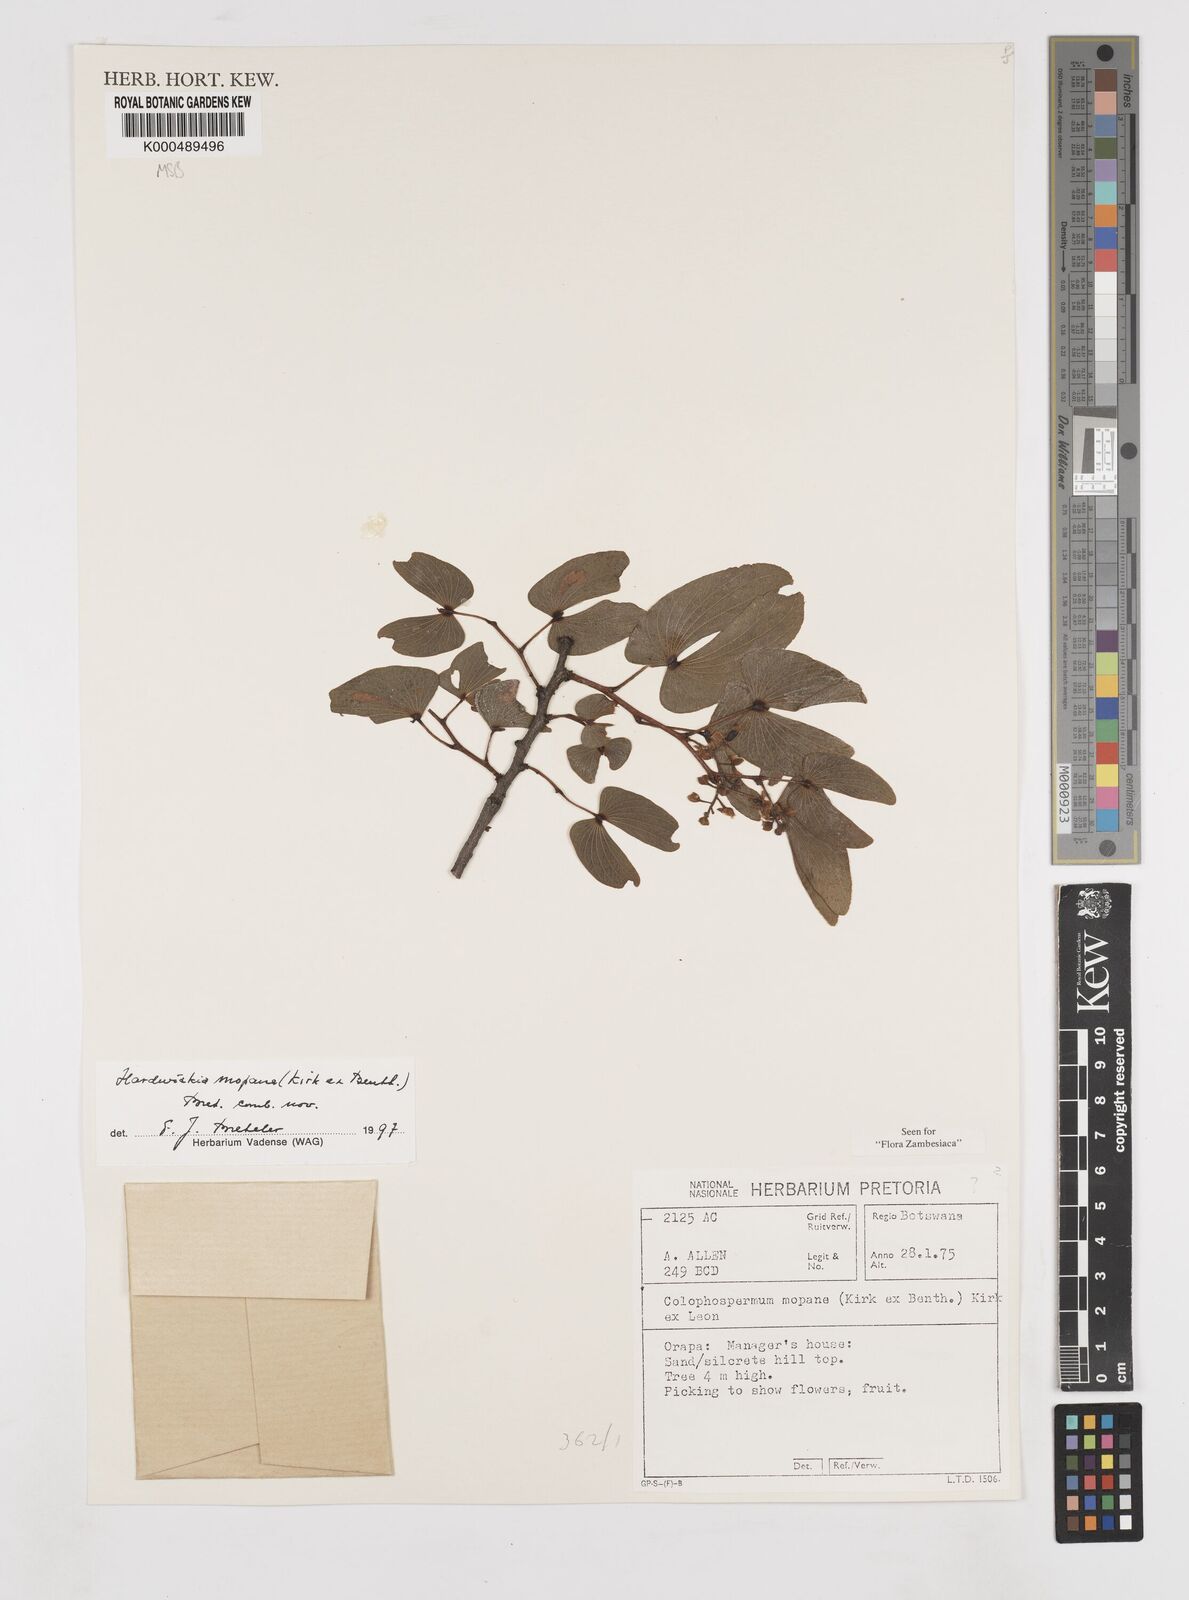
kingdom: Plantae
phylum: Tracheophyta
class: Magnoliopsida
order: Fabales
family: Fabaceae
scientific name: Fabaceae
